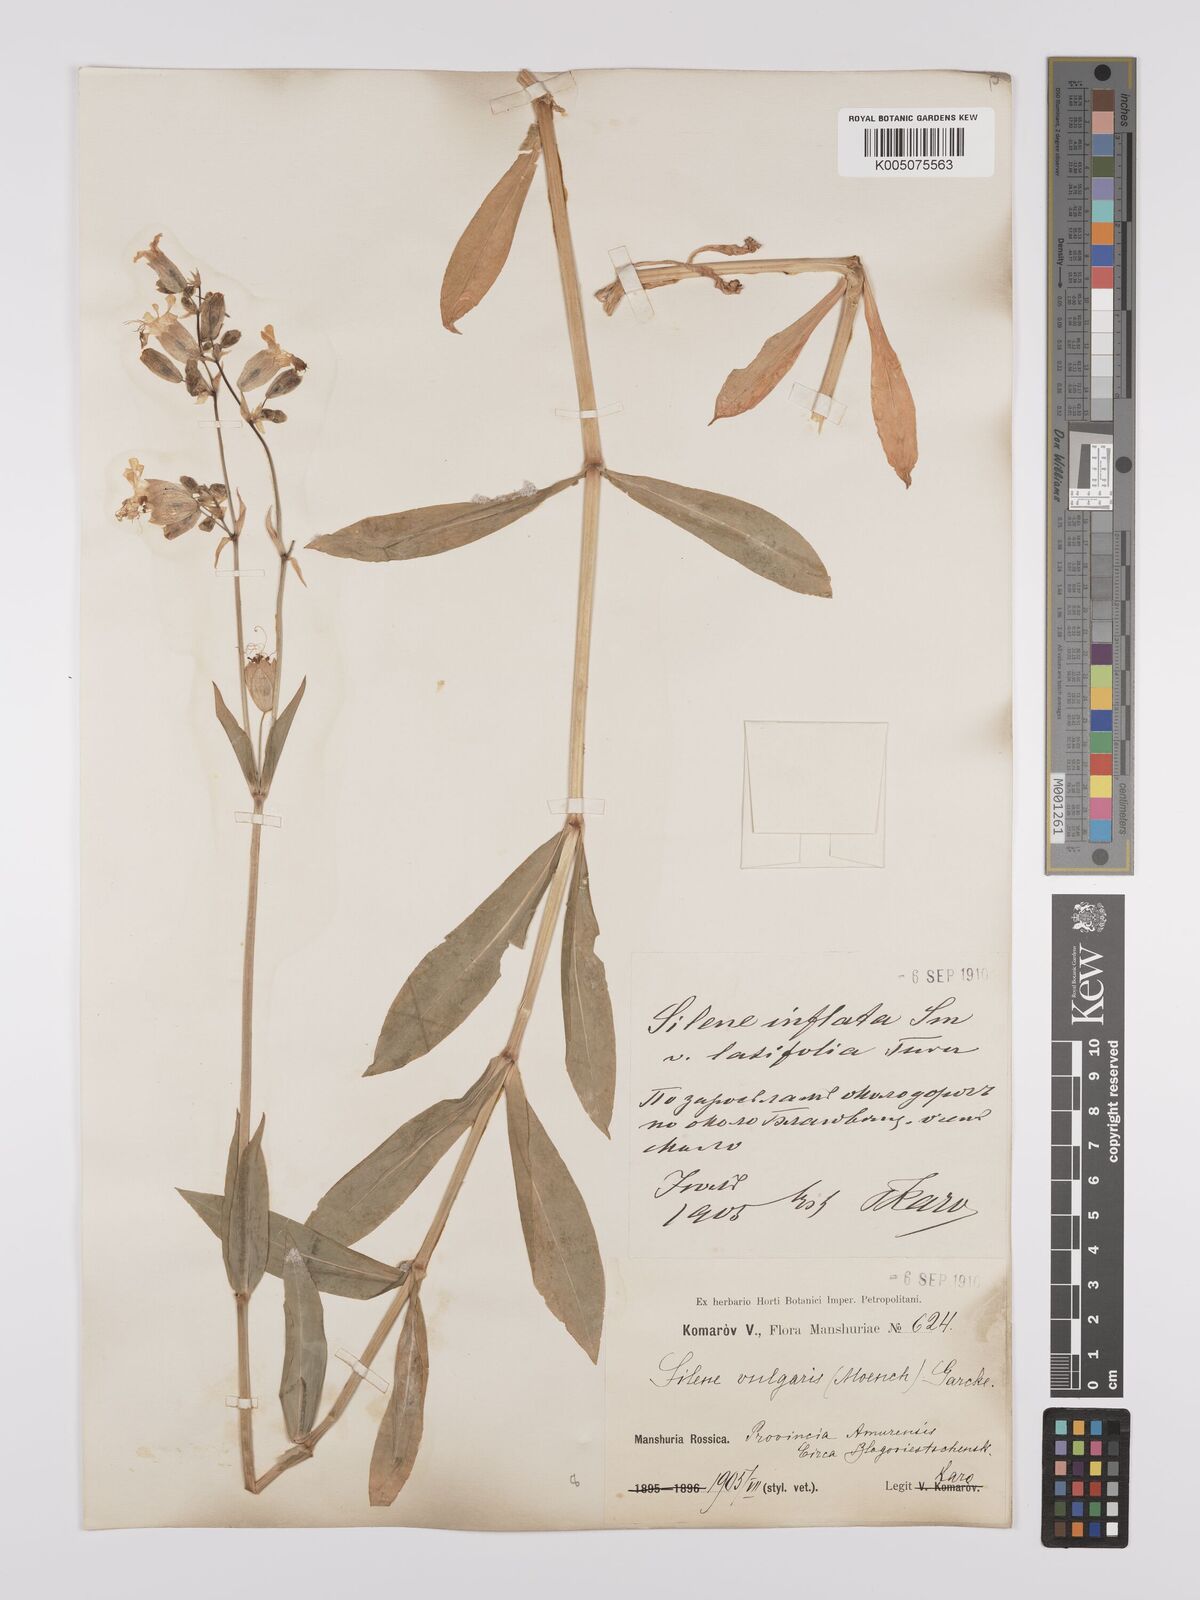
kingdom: Plantae
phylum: Tracheophyta
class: Magnoliopsida
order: Caryophyllales
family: Caryophyllaceae
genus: Silene
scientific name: Silene vulgaris
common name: Bladder campion
